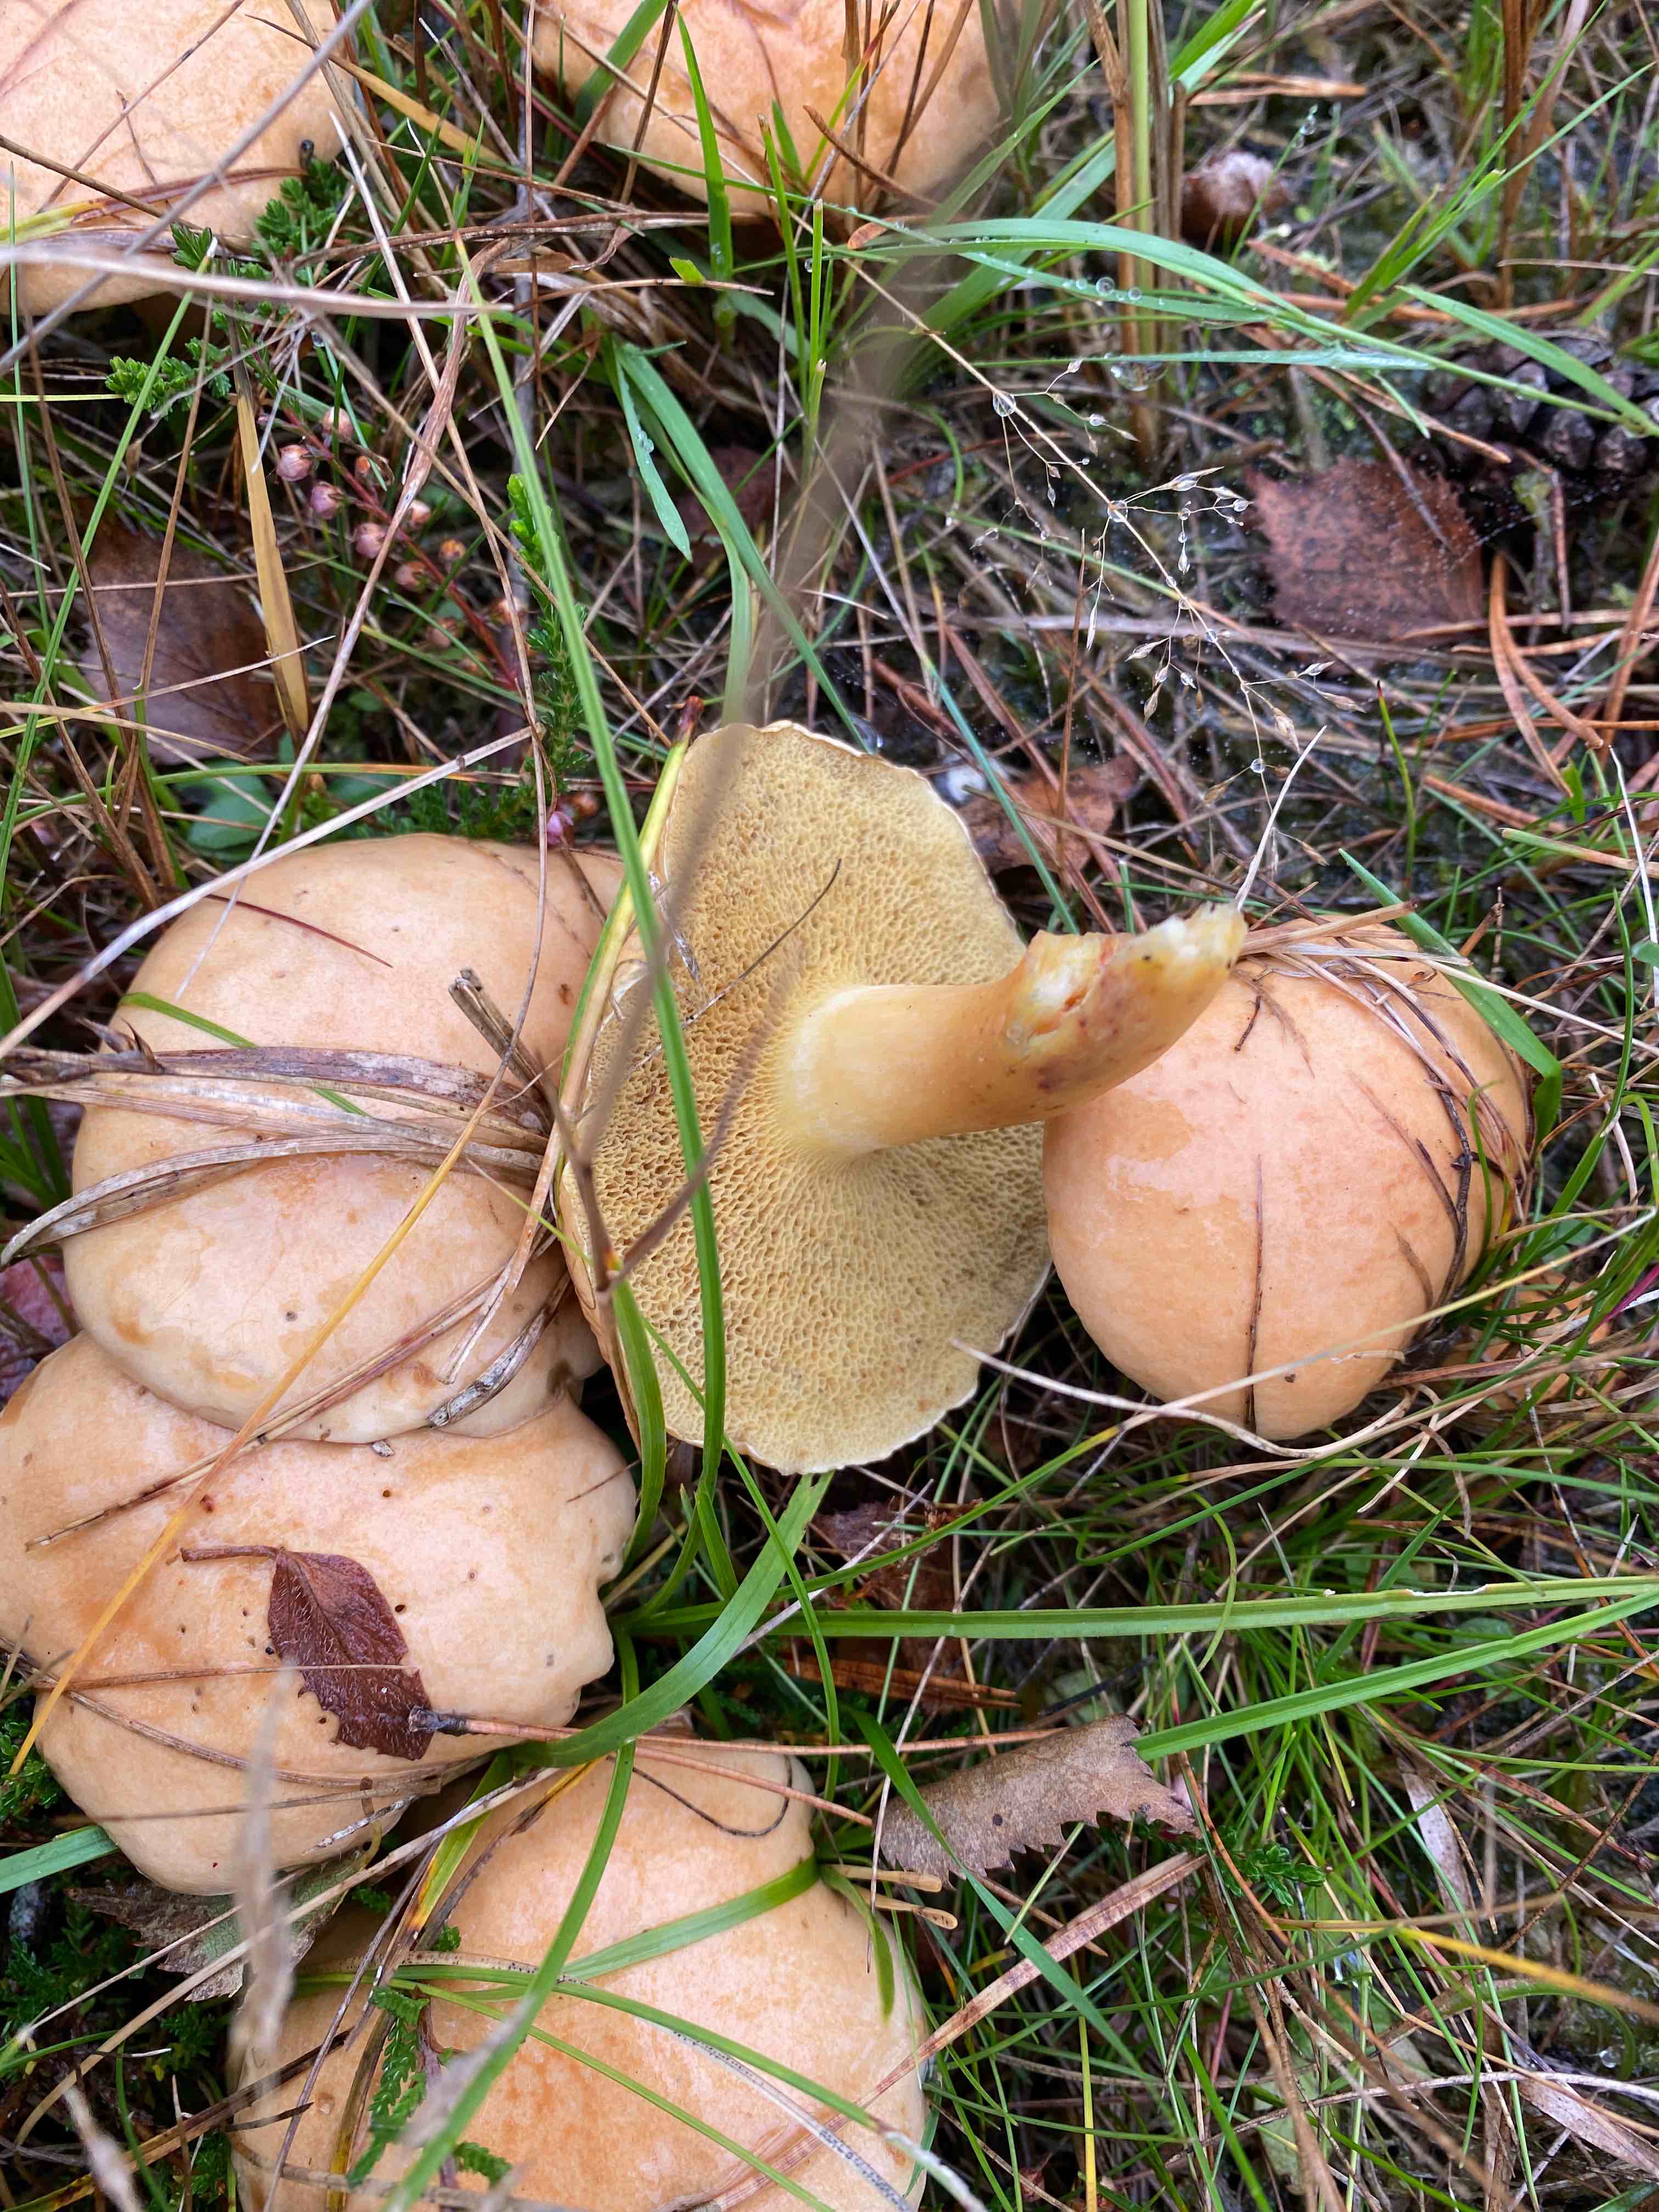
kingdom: Fungi
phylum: Basidiomycota
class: Agaricomycetes
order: Boletales
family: Suillaceae
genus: Suillus
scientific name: Suillus variegatus
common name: broget slimrørhat
